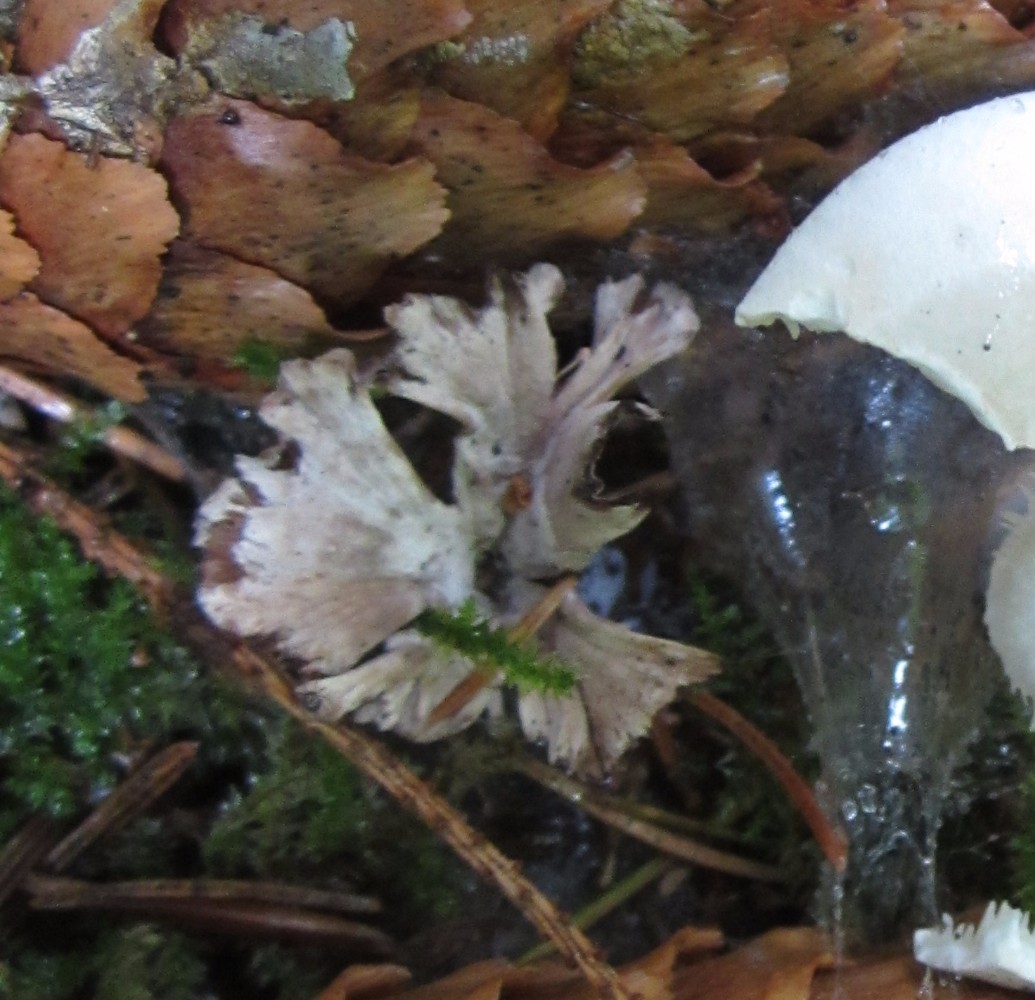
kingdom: Fungi
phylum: Basidiomycota
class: Agaricomycetes
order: Thelephorales
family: Thelephoraceae
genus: Thelephora
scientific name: Thelephora caryophyllea
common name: tragt-frynsesvamp
